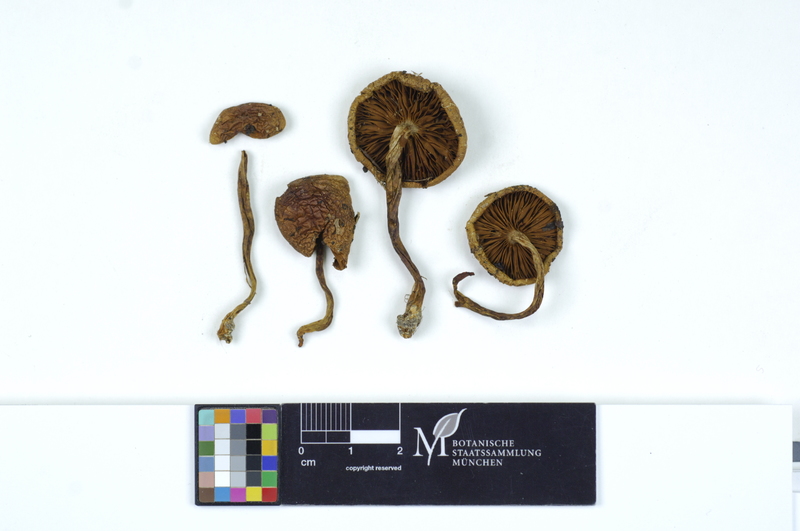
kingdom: Fungi
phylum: Basidiomycota
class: Agaricomycetes
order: Agaricales
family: Strophariaceae
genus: Pholiota
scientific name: Pholiota abstrusa
